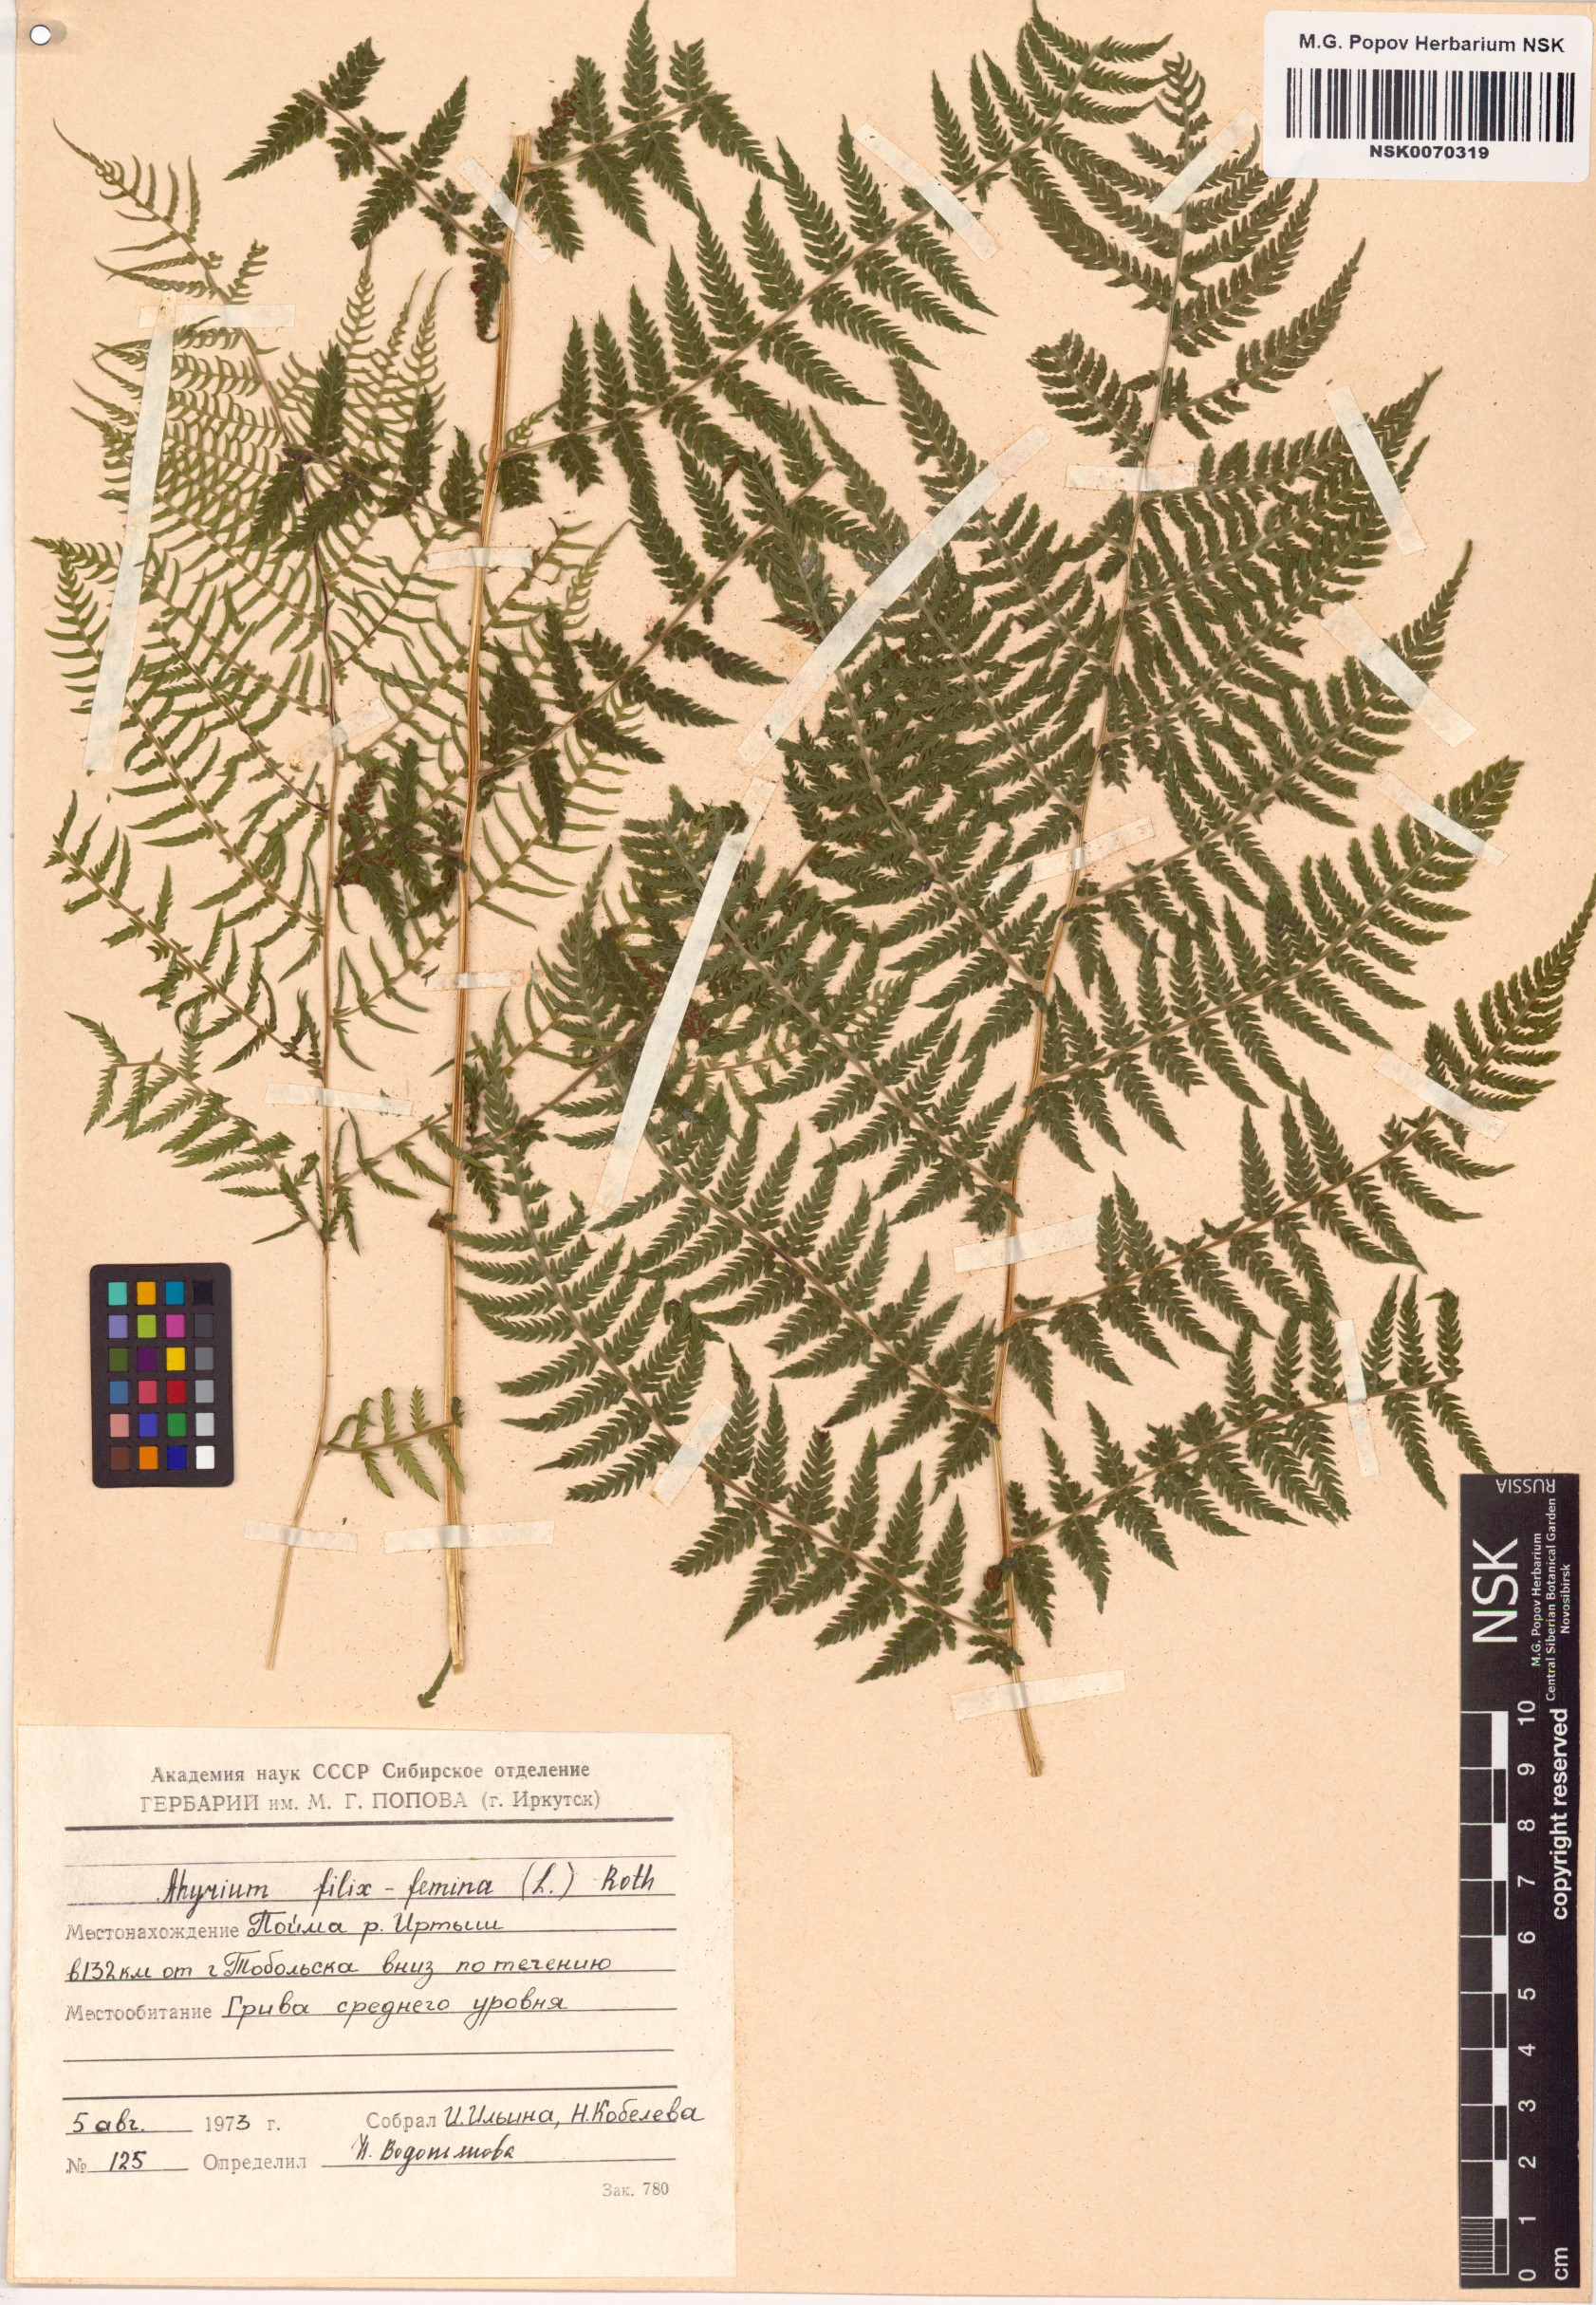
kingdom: Plantae
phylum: Tracheophyta
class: Polypodiopsida
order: Polypodiales
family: Athyriaceae
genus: Athyrium
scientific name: Athyrium filix-femina
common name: Lady fern
